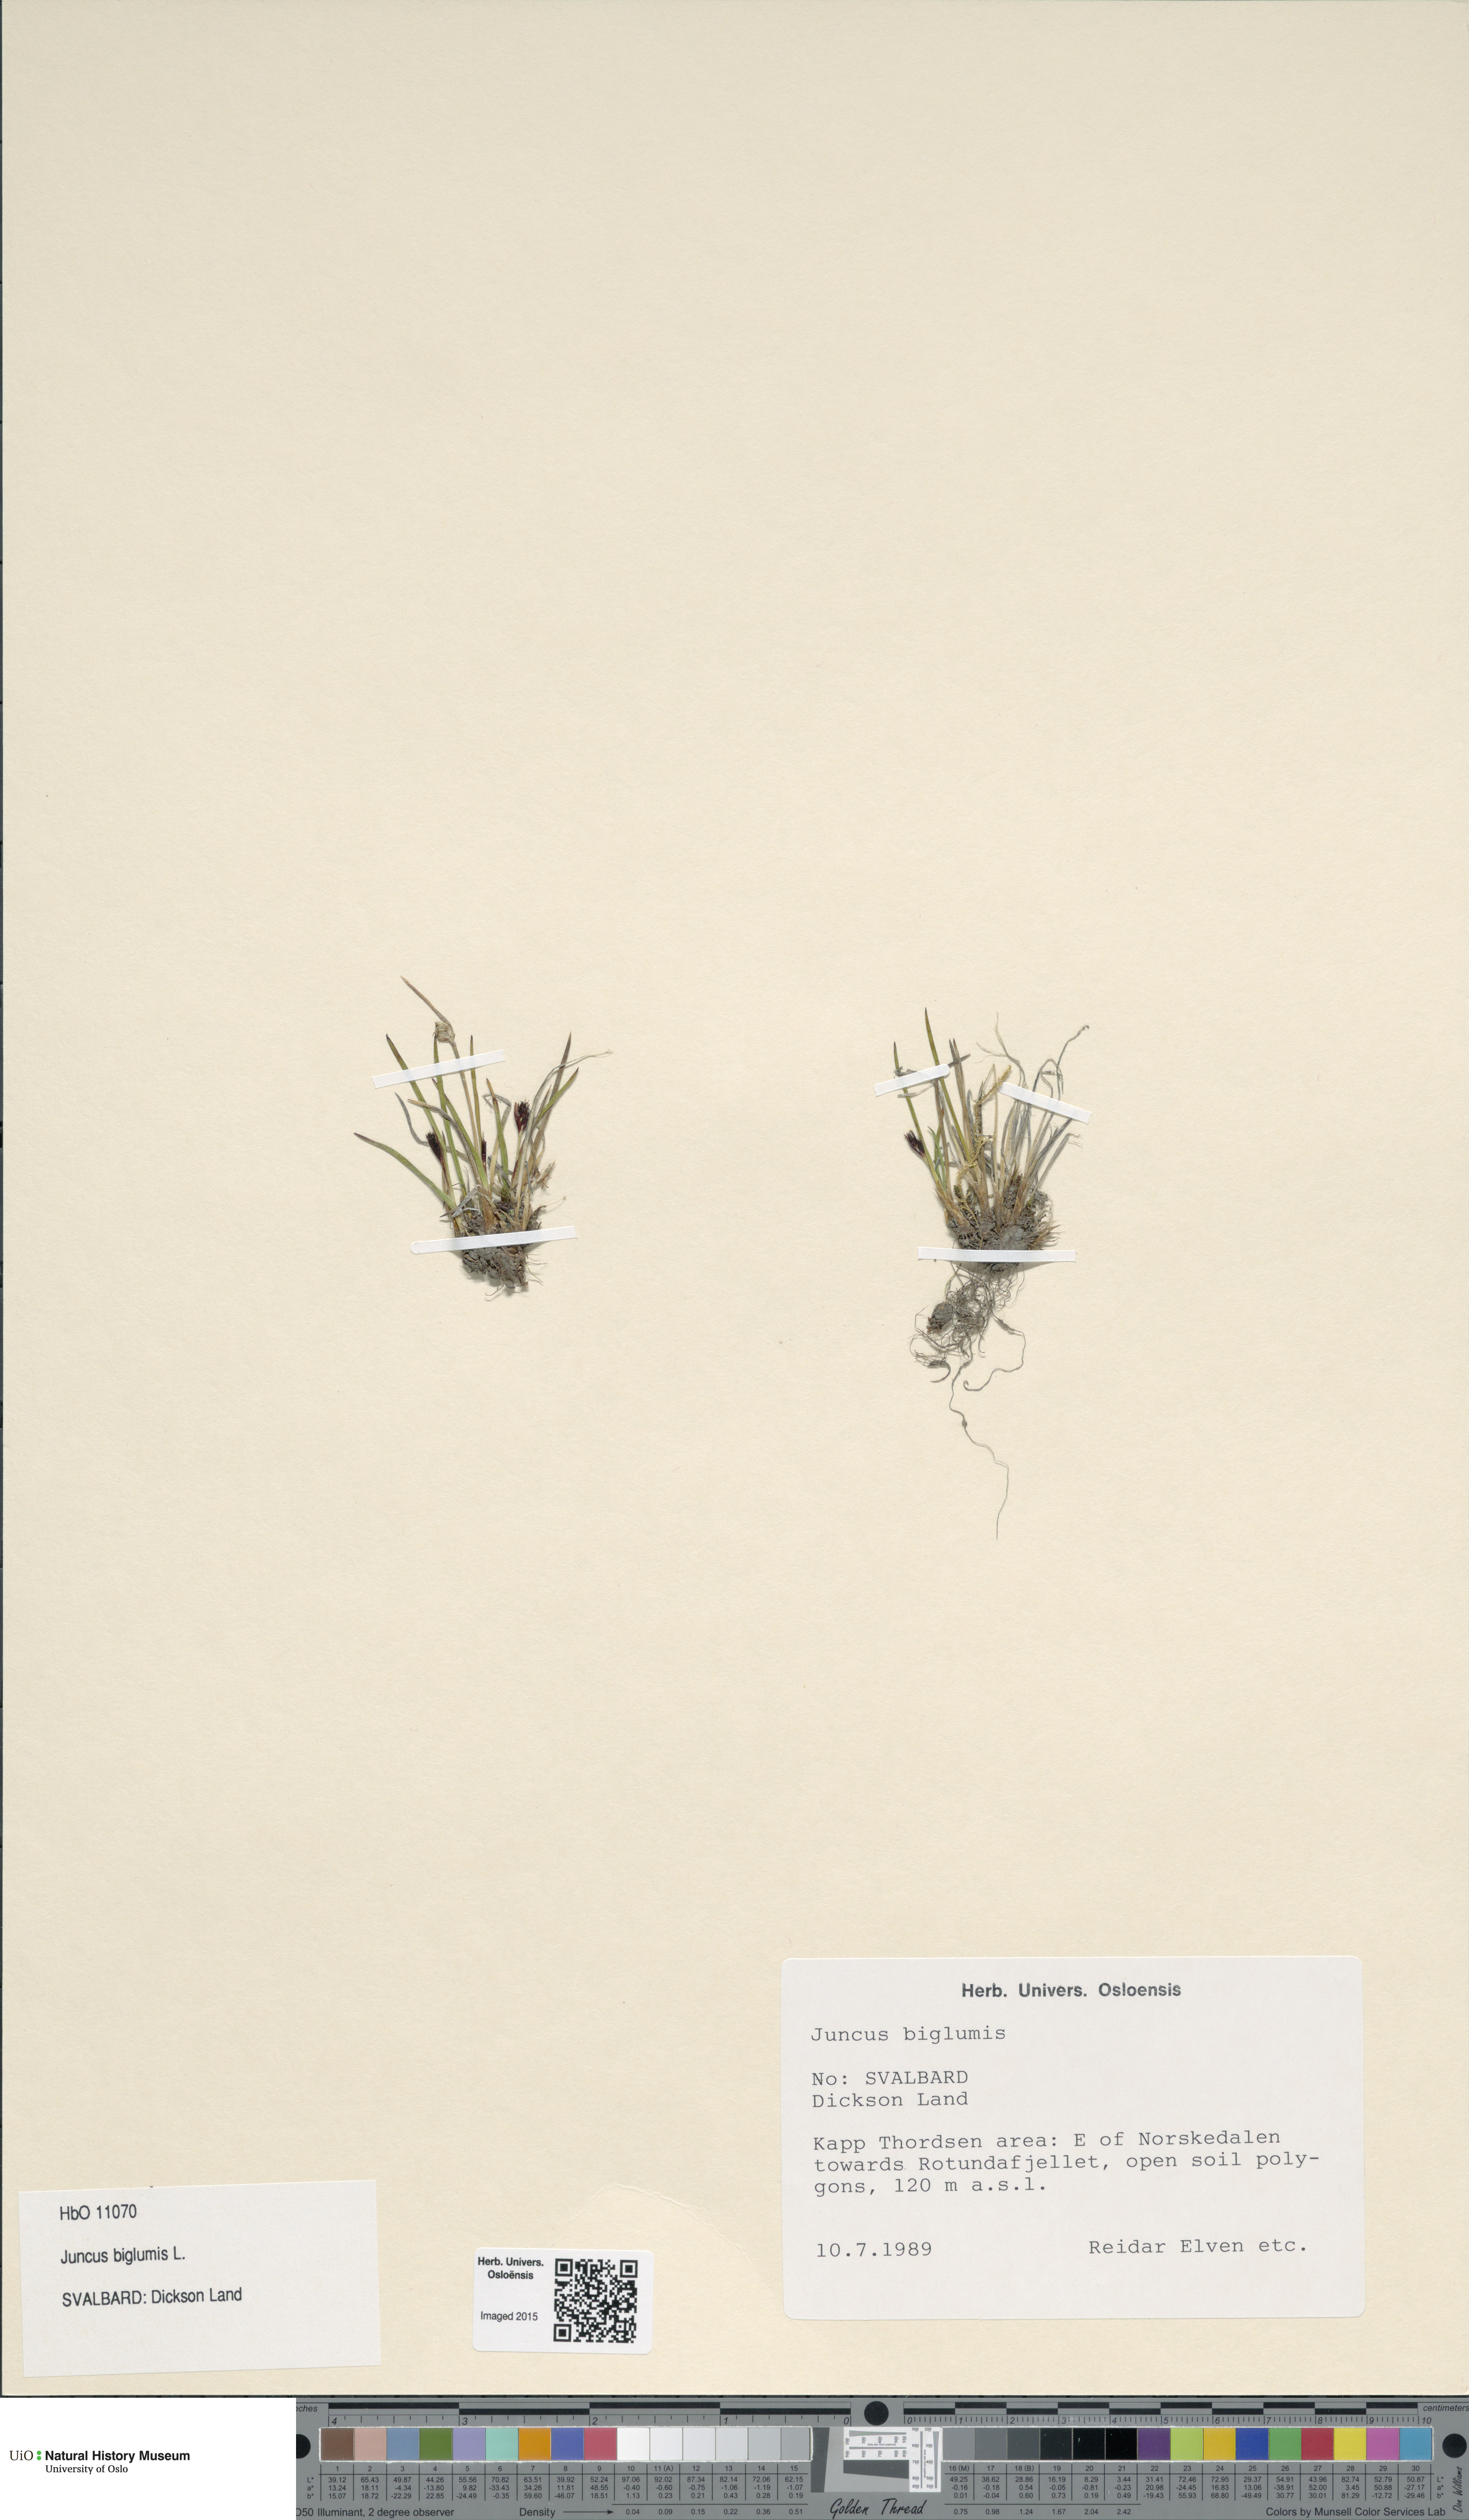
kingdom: Plantae
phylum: Tracheophyta
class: Liliopsida
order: Poales
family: Juncaceae
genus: Juncus
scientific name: Juncus biglumis
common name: Two-flowered rush
